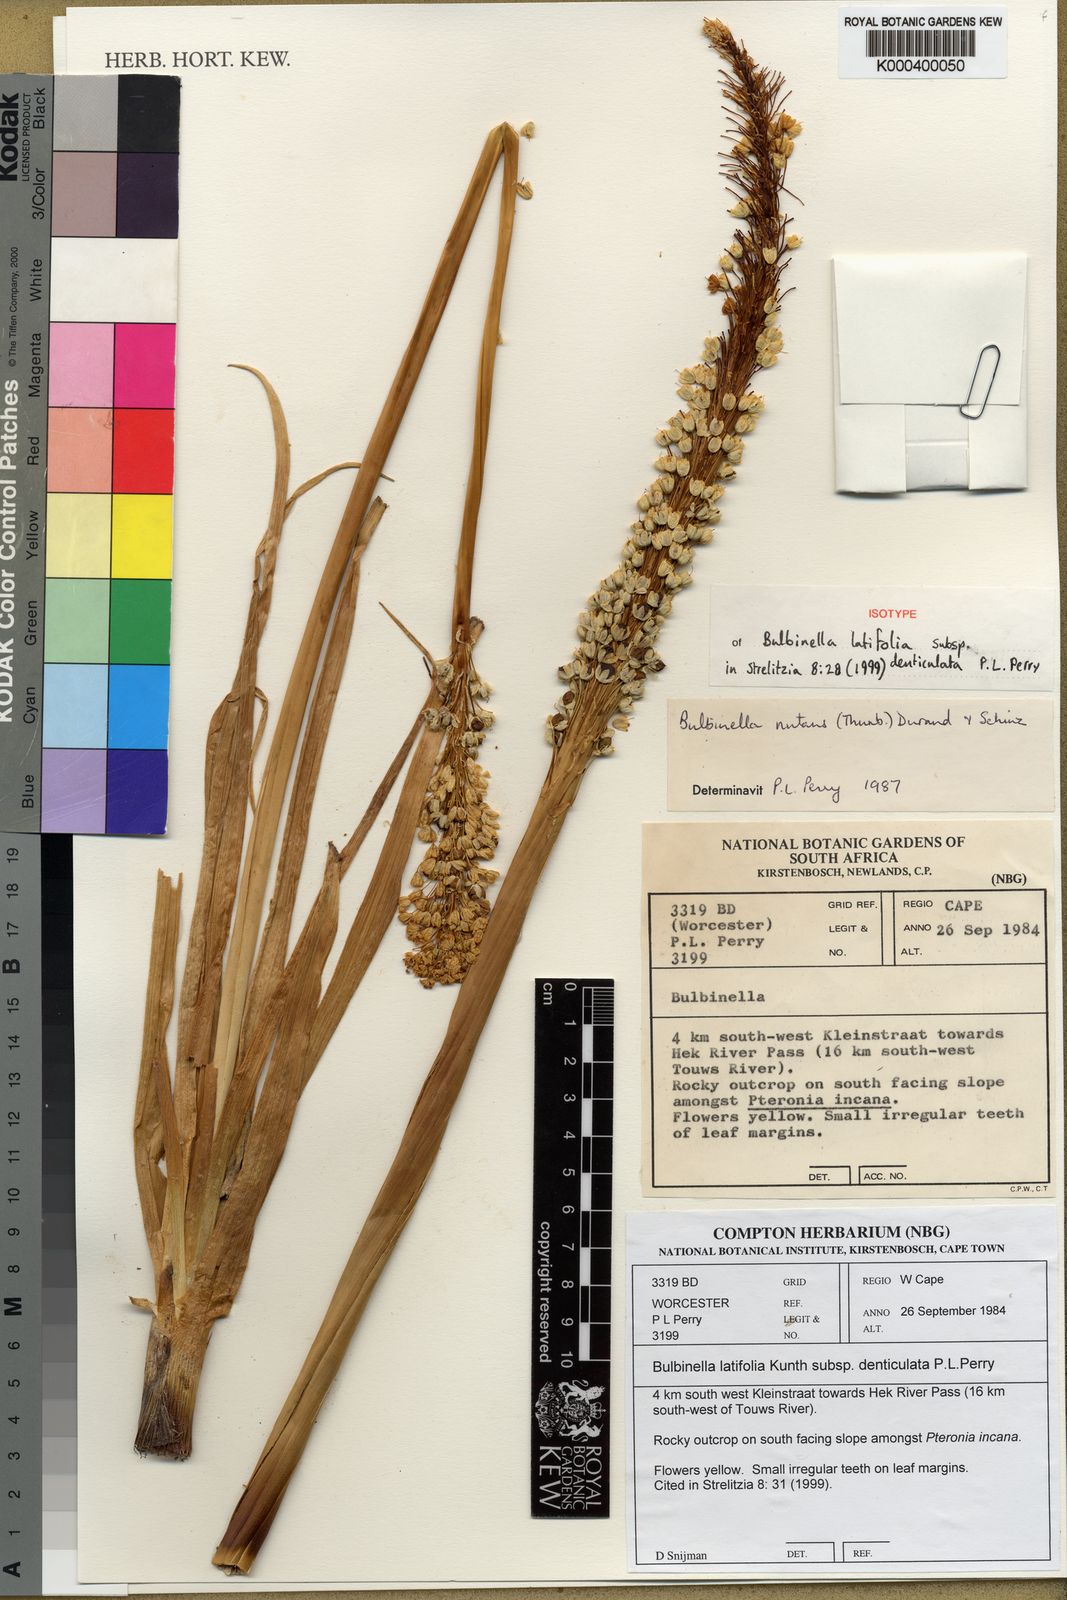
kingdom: Plantae
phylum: Tracheophyta
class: Liliopsida
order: Asparagales
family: Asphodelaceae
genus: Bulbinella
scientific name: Bulbinella latifolia
